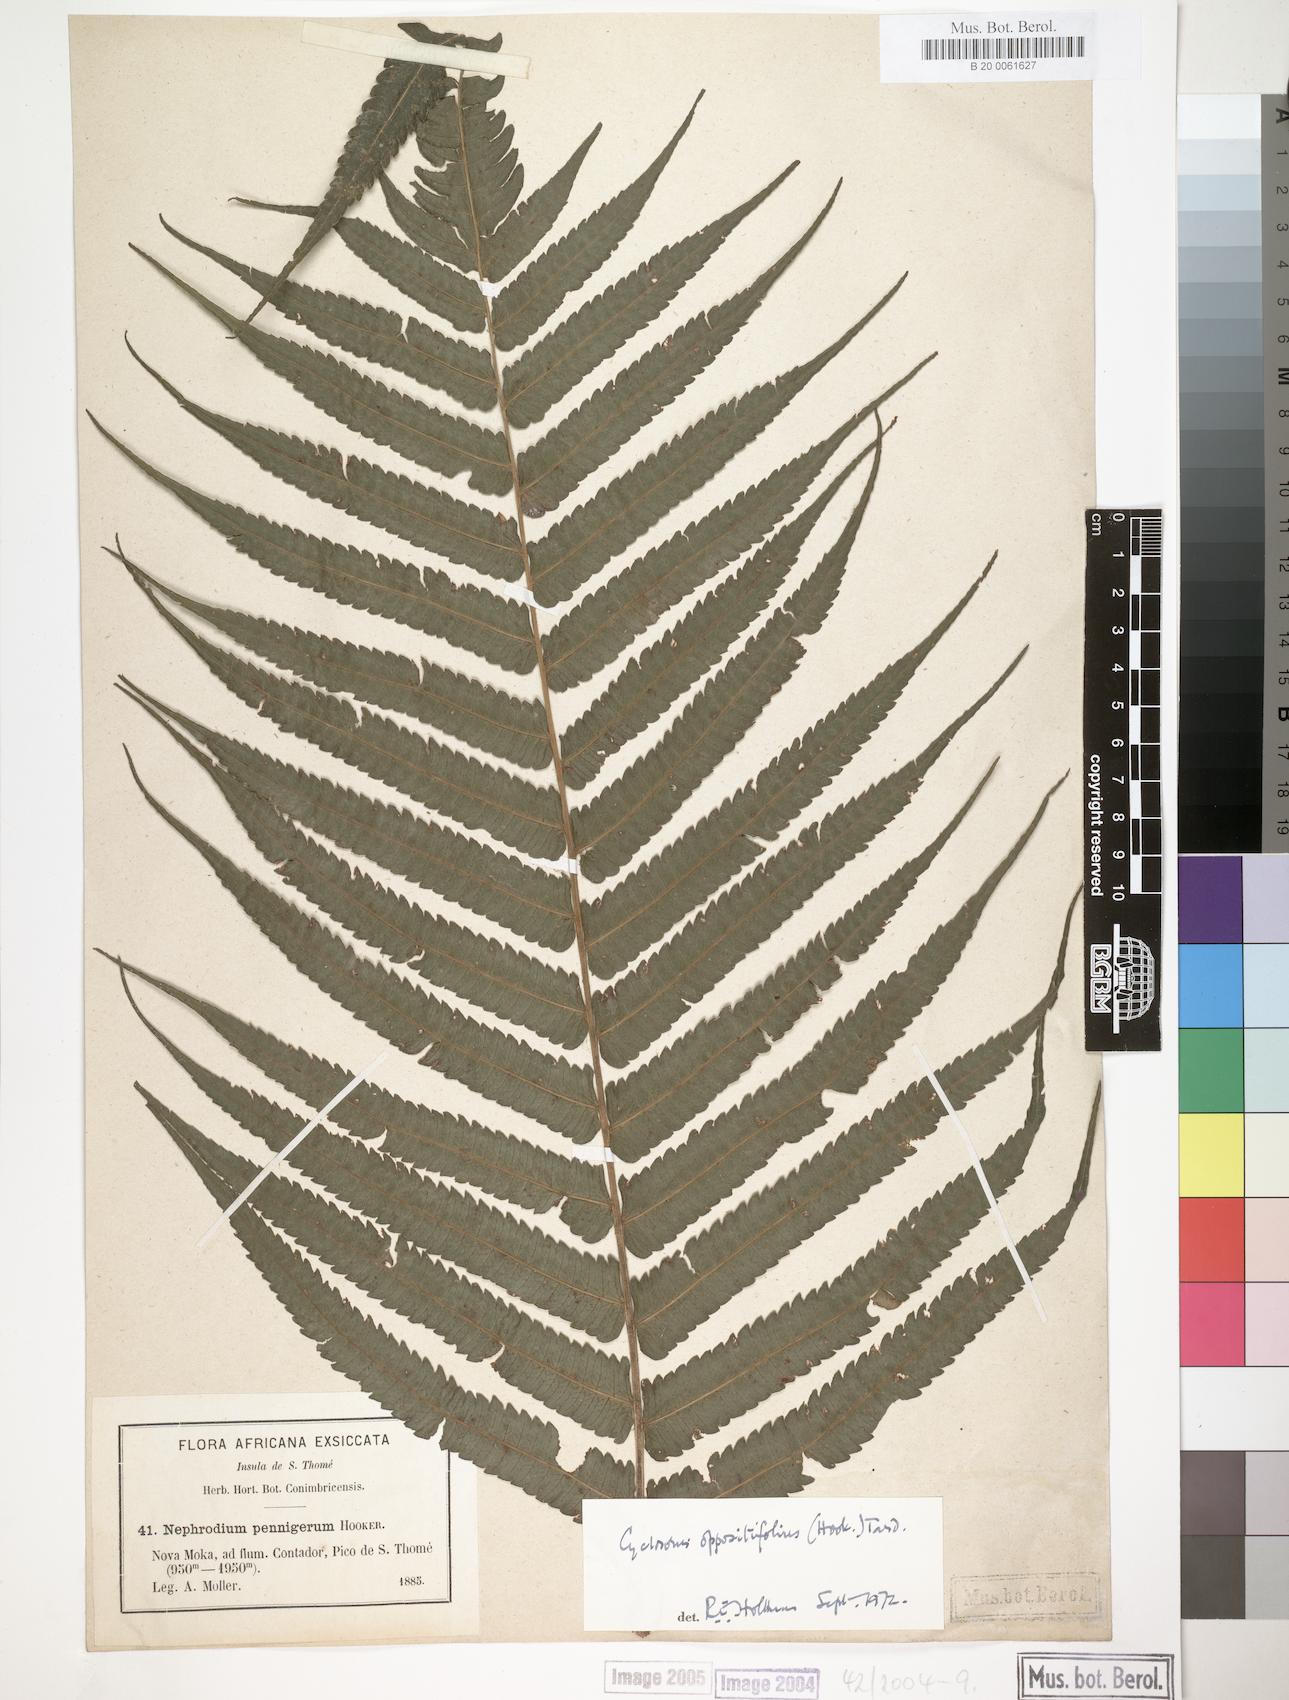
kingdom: Plantae
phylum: Tracheophyta
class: Polypodiopsida
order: Polypodiales
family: Thelypteridaceae
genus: Menisorus
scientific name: Menisorus oppositifolius
